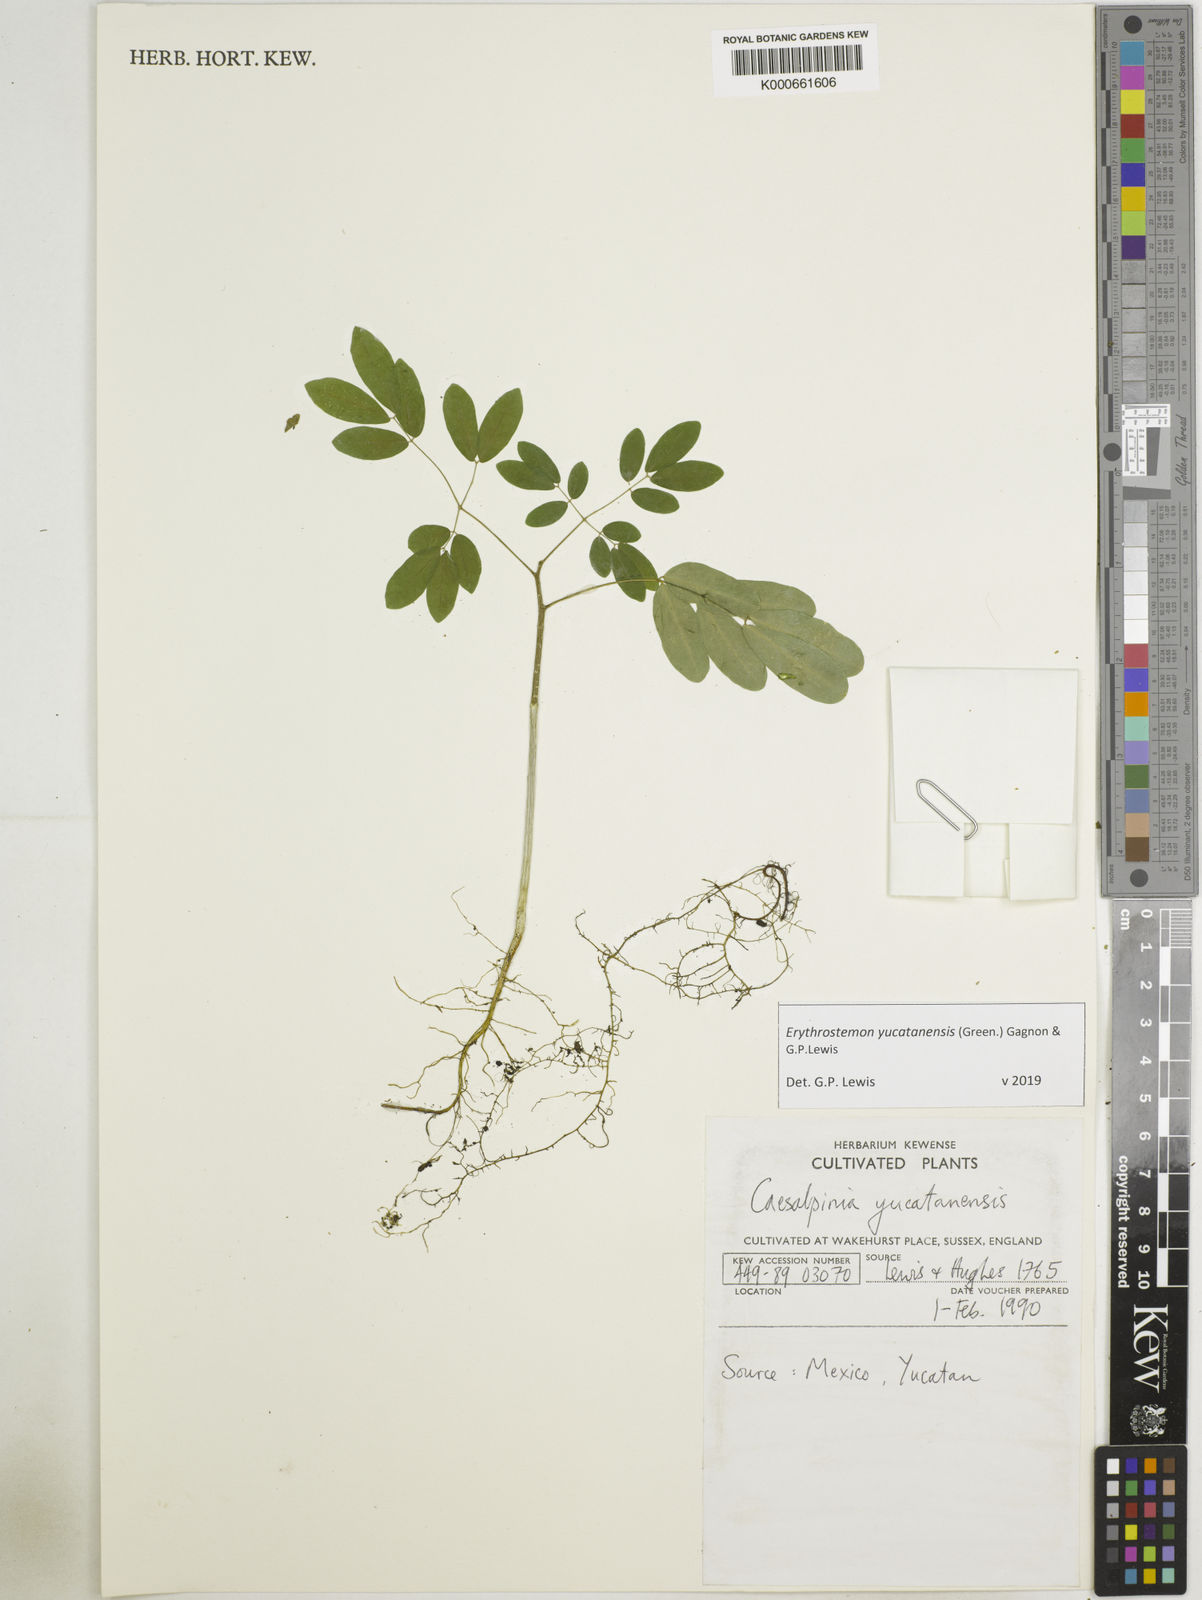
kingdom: Plantae
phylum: Tracheophyta
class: Magnoliopsida
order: Fabales
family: Fabaceae
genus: Caesalpinia
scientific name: Caesalpinia
